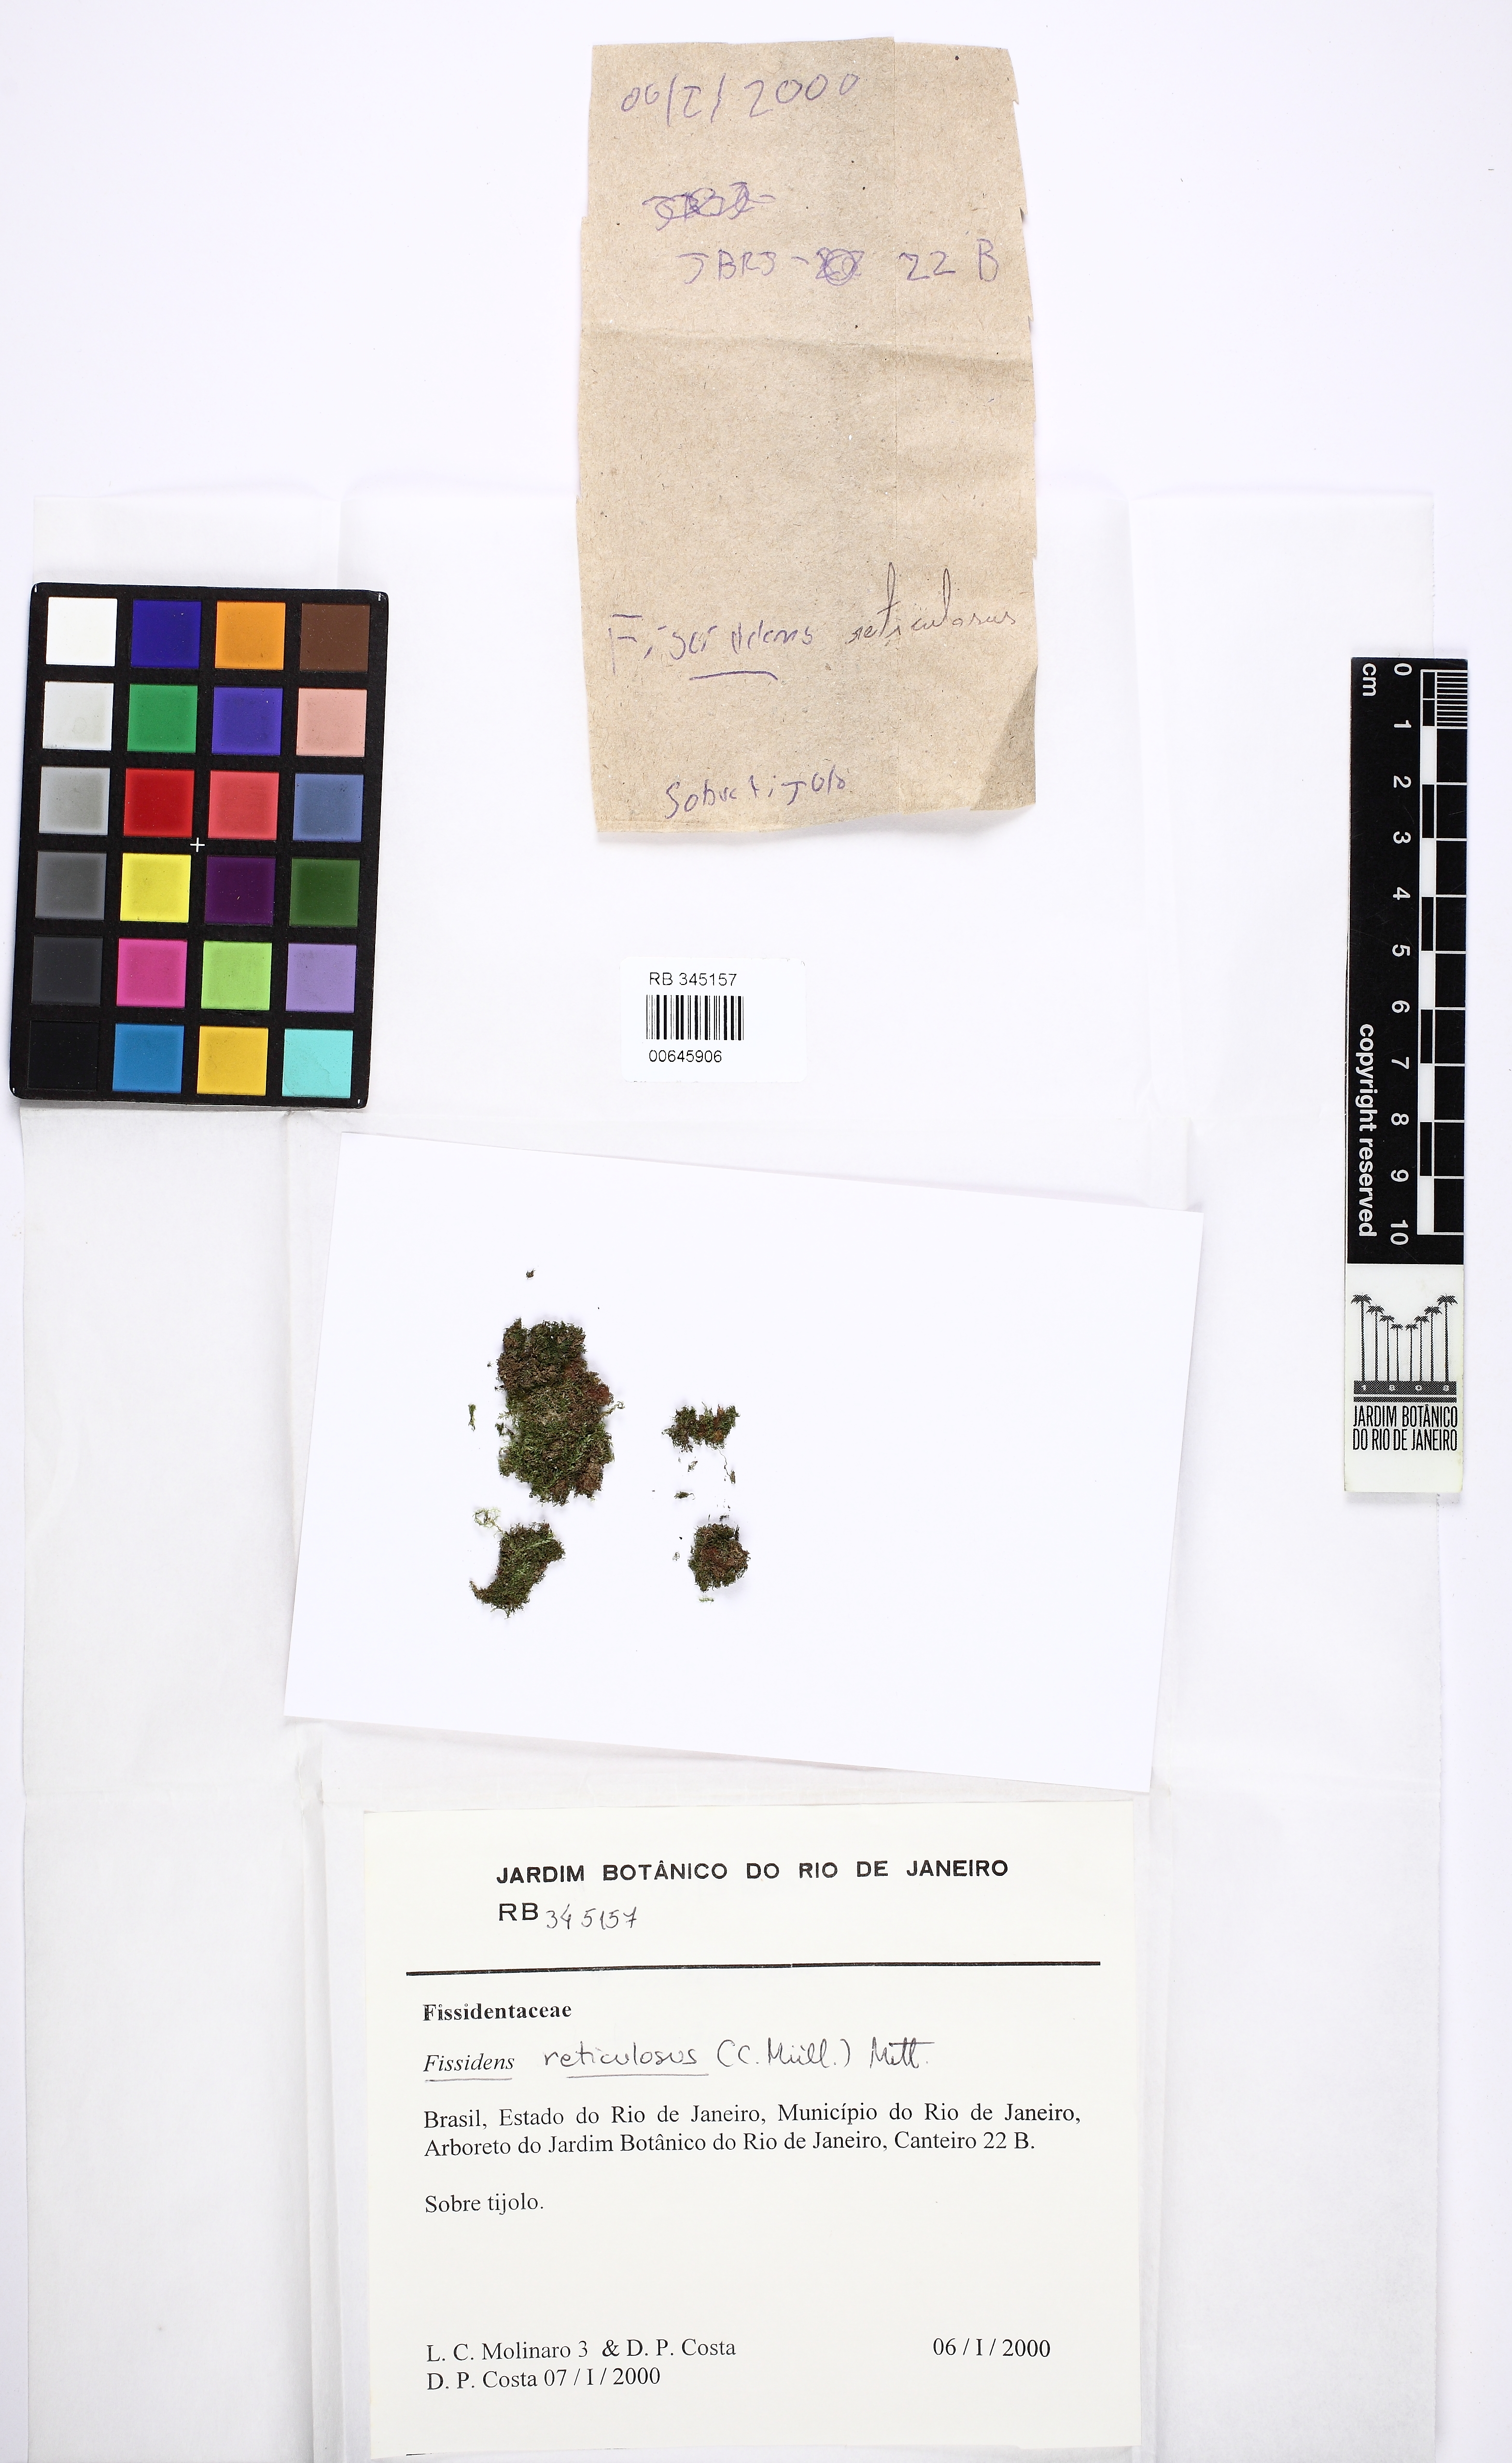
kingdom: Plantae
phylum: Bryophyta
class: Bryopsida
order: Dicranales
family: Fissidentaceae
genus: Fissidens
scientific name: Fissidens palmatus
